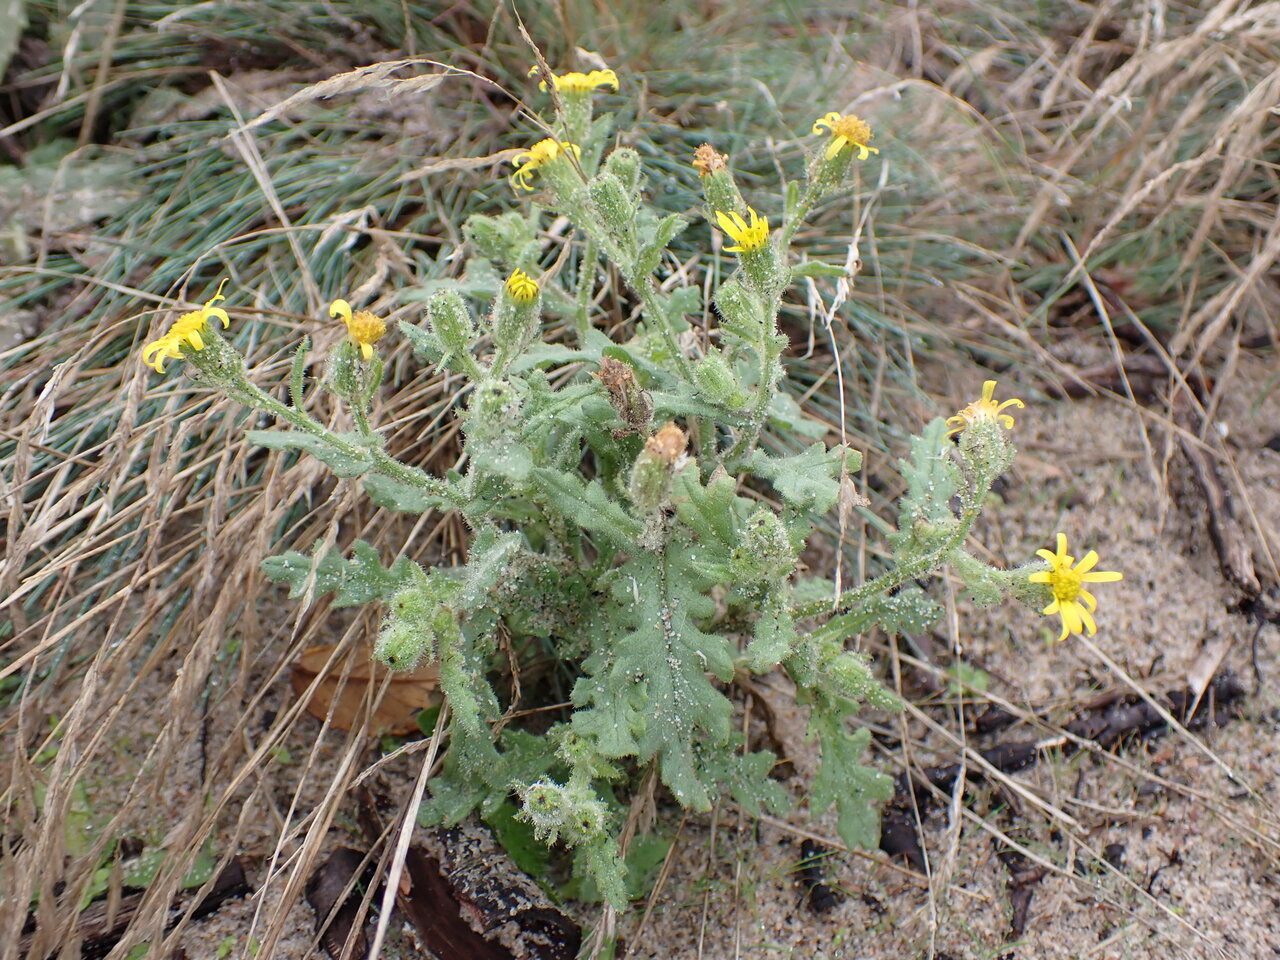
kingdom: Plantae
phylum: Tracheophyta
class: Magnoliopsida
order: Asterales
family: Asteraceae
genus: Senecio
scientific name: Senecio viscosus
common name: Klæbrig brandbæger
